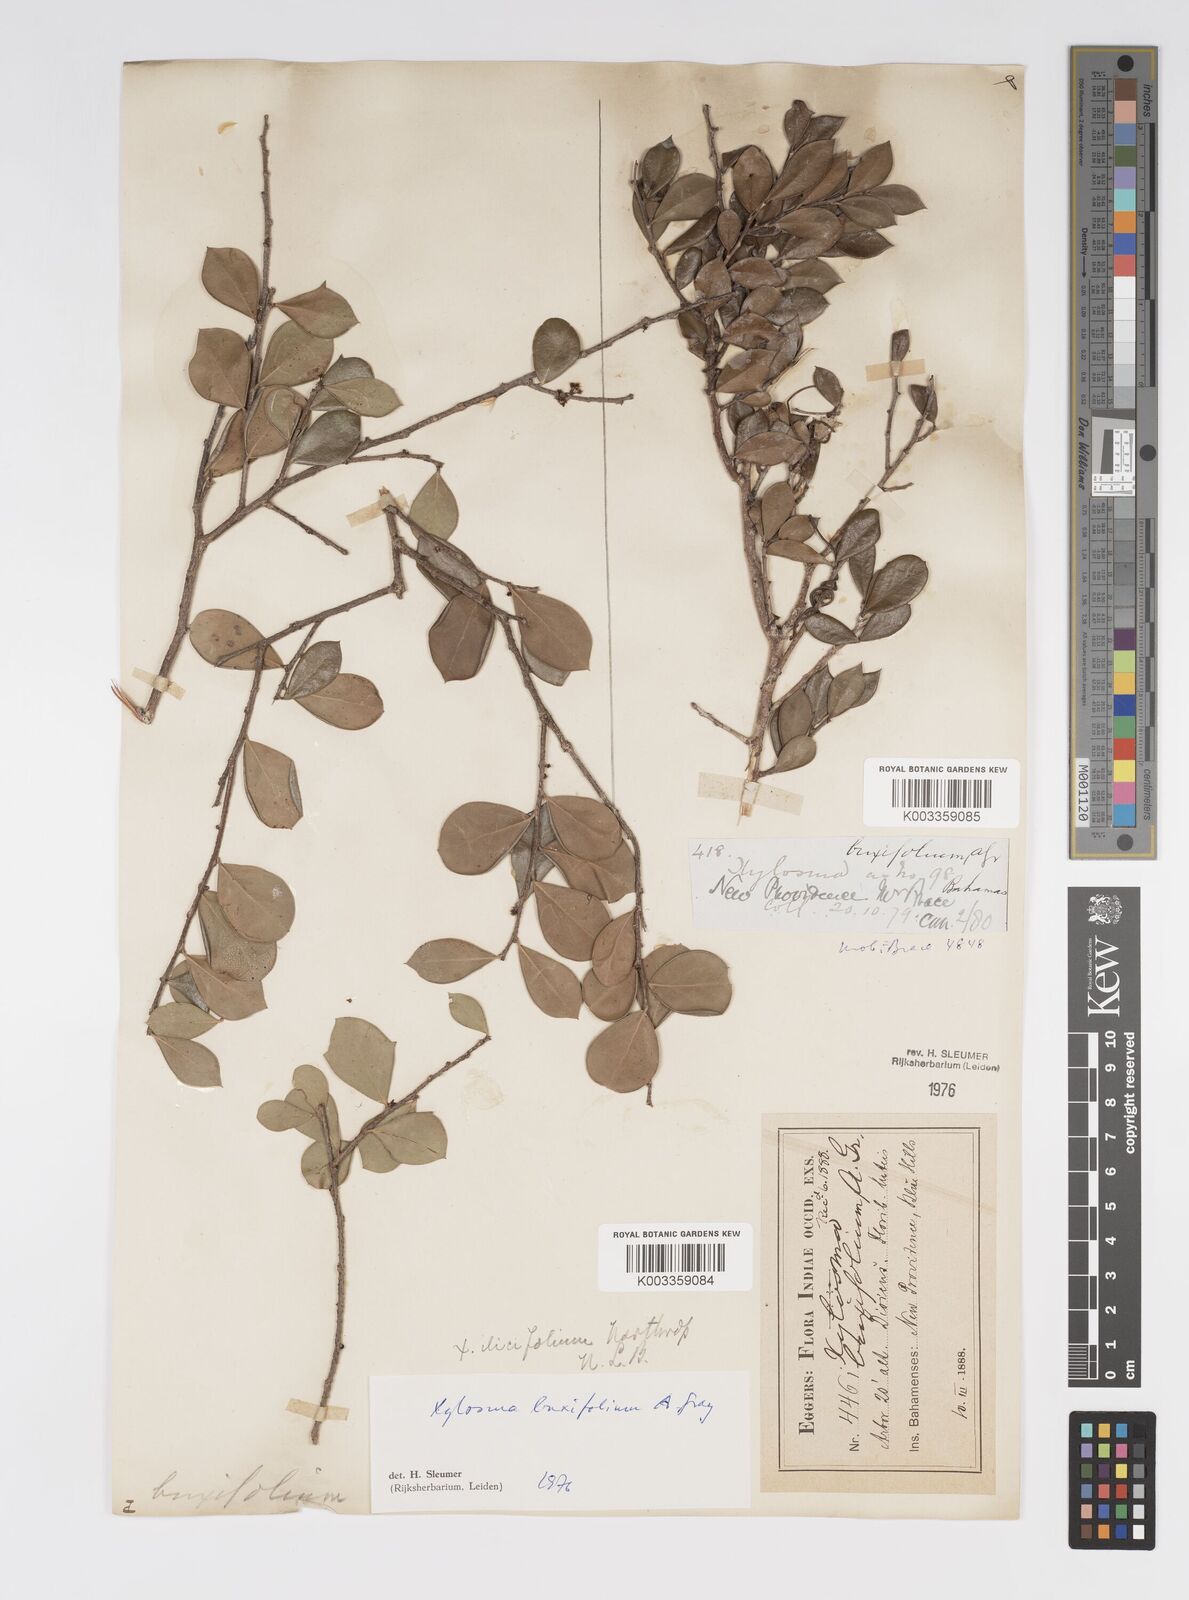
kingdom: Plantae
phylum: Tracheophyta
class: Magnoliopsida
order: Malpighiales
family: Salicaceae
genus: Xylosma
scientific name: Xylosma buxifolia
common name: Cockspur
